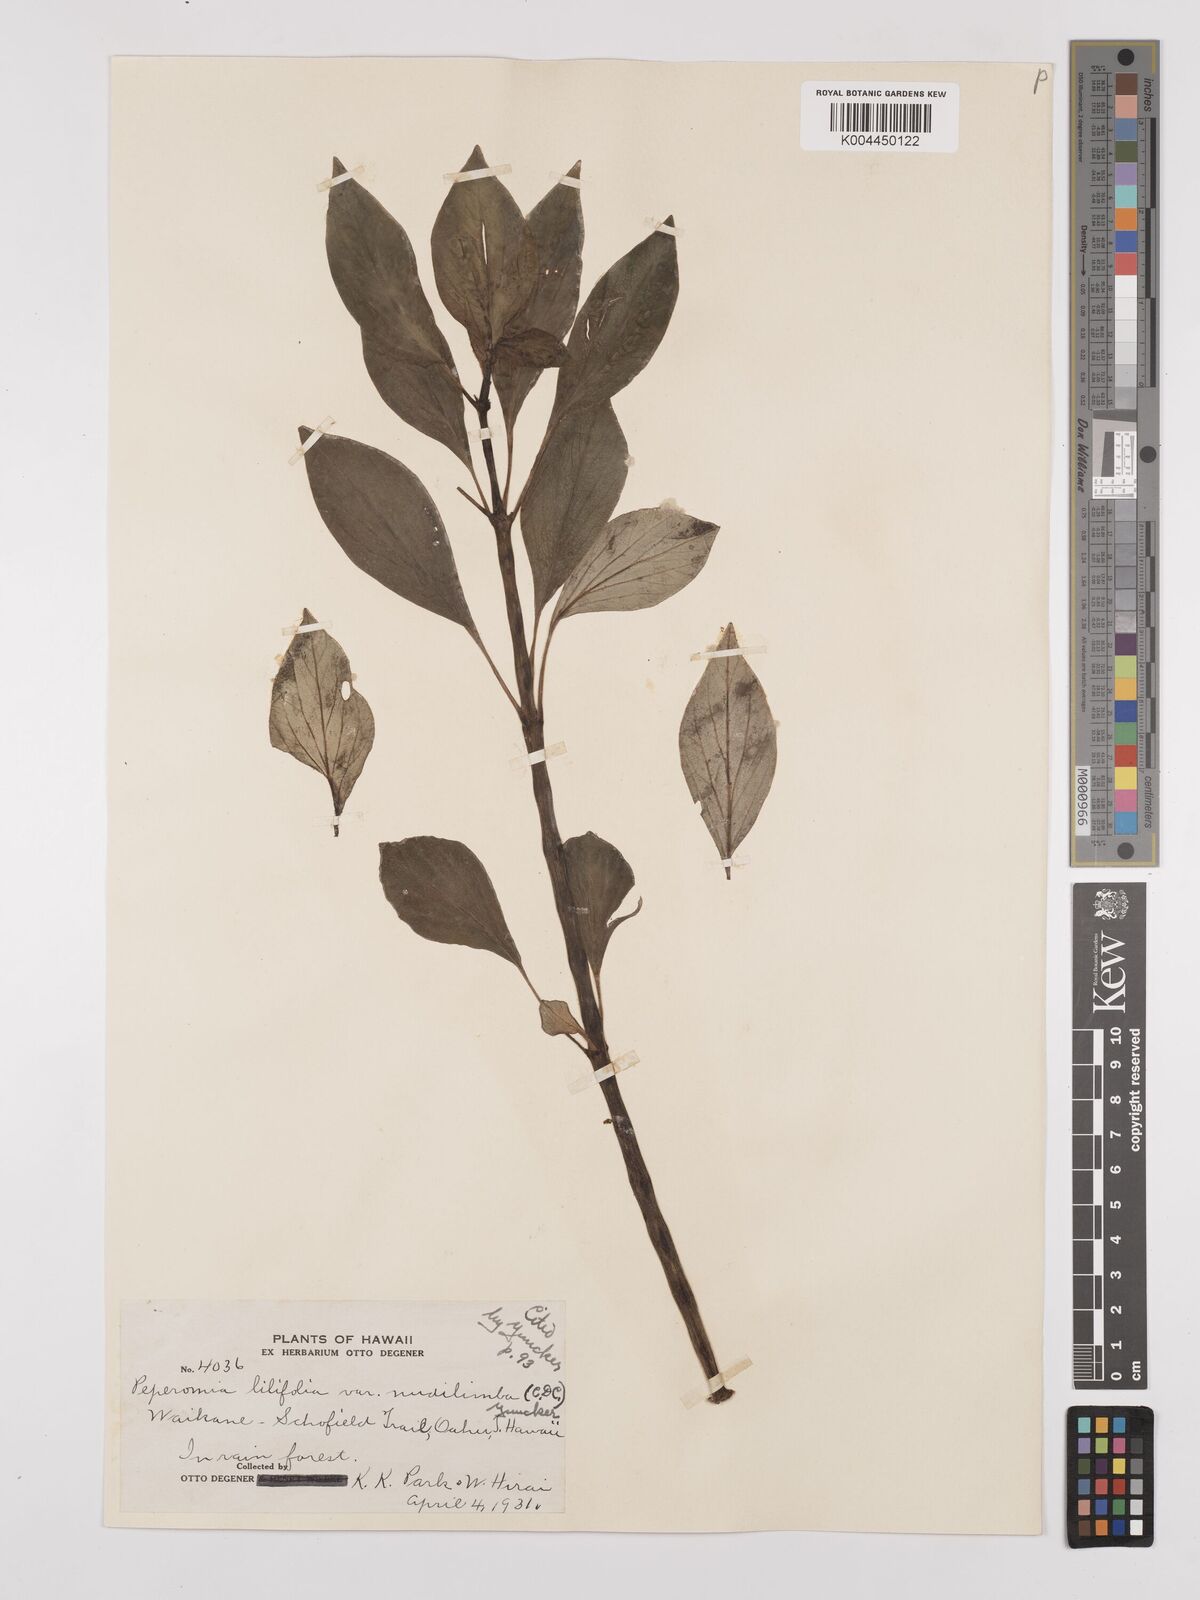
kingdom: Plantae
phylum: Tracheophyta
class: Magnoliopsida
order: Piperales
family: Piperaceae
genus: Peperomia
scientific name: Peperomia macraeana
